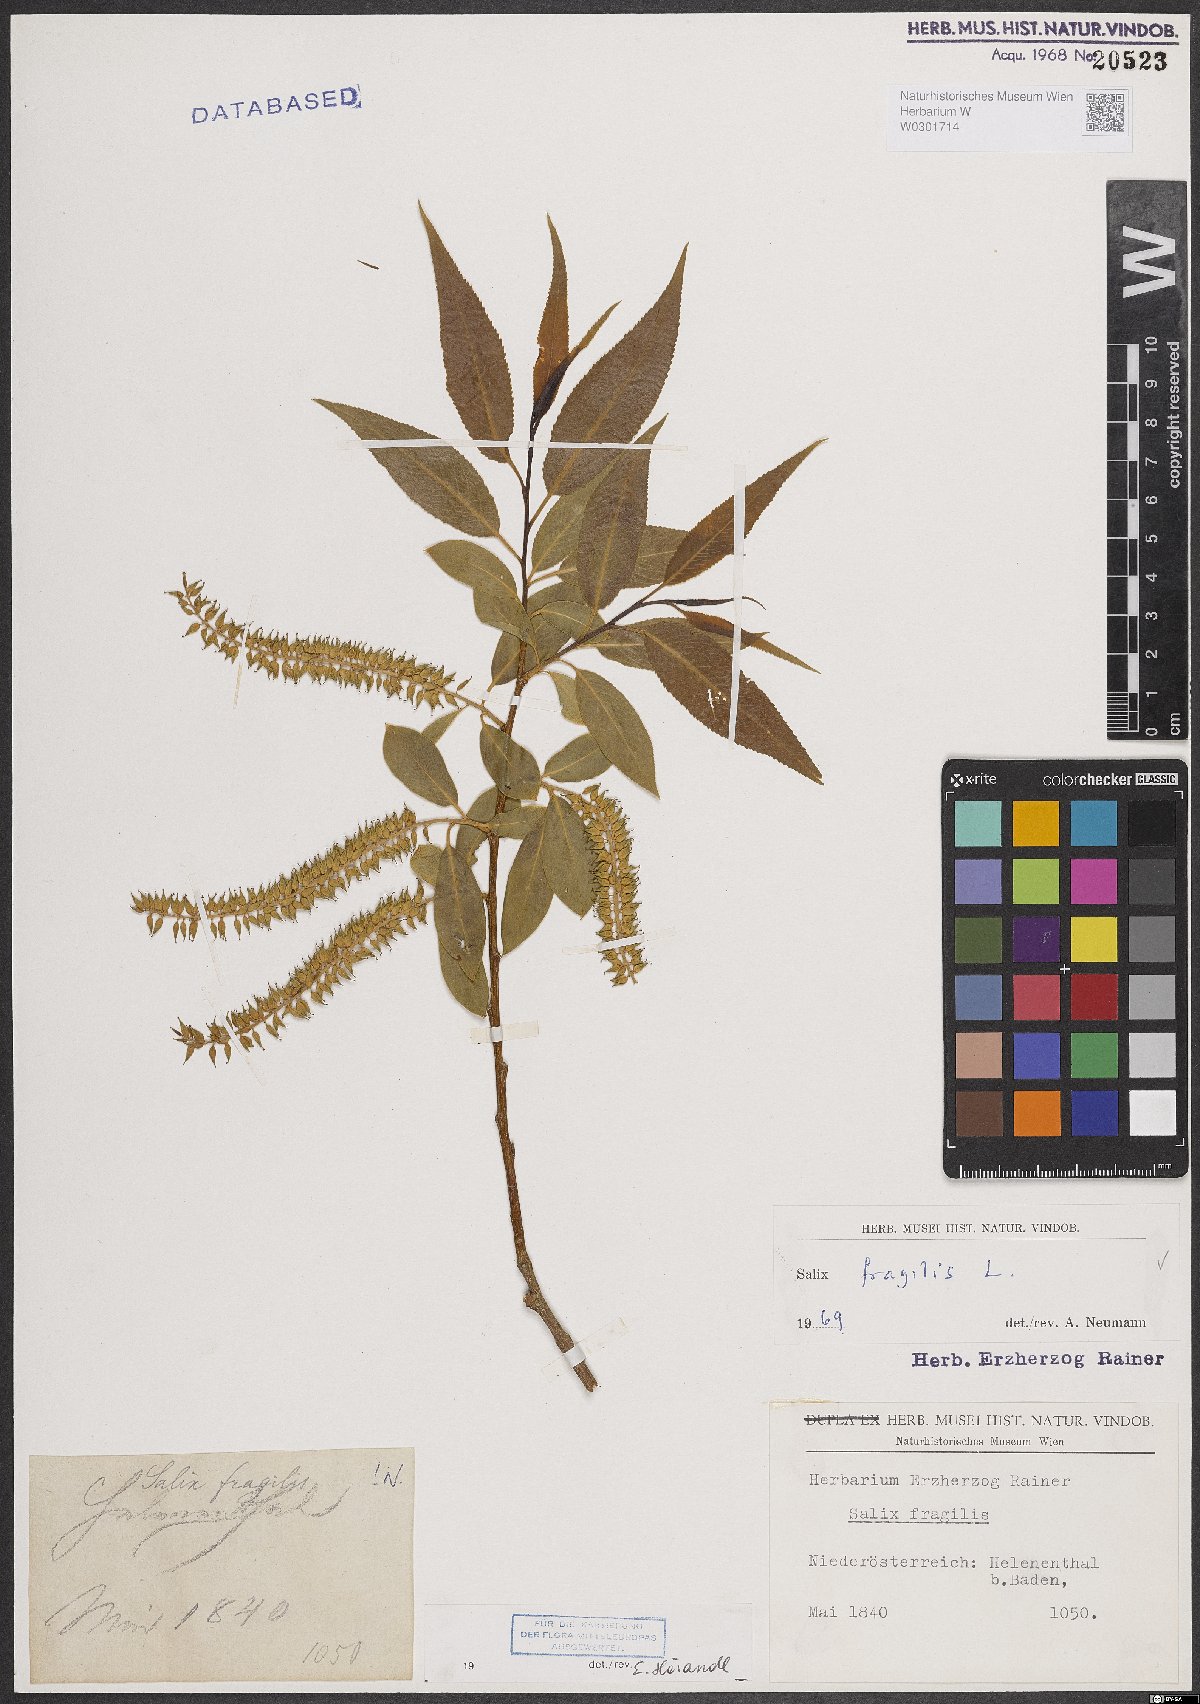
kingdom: Plantae
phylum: Tracheophyta
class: Magnoliopsida
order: Malpighiales
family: Salicaceae
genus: Salix
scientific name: Salix fragilis
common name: Crack willow
